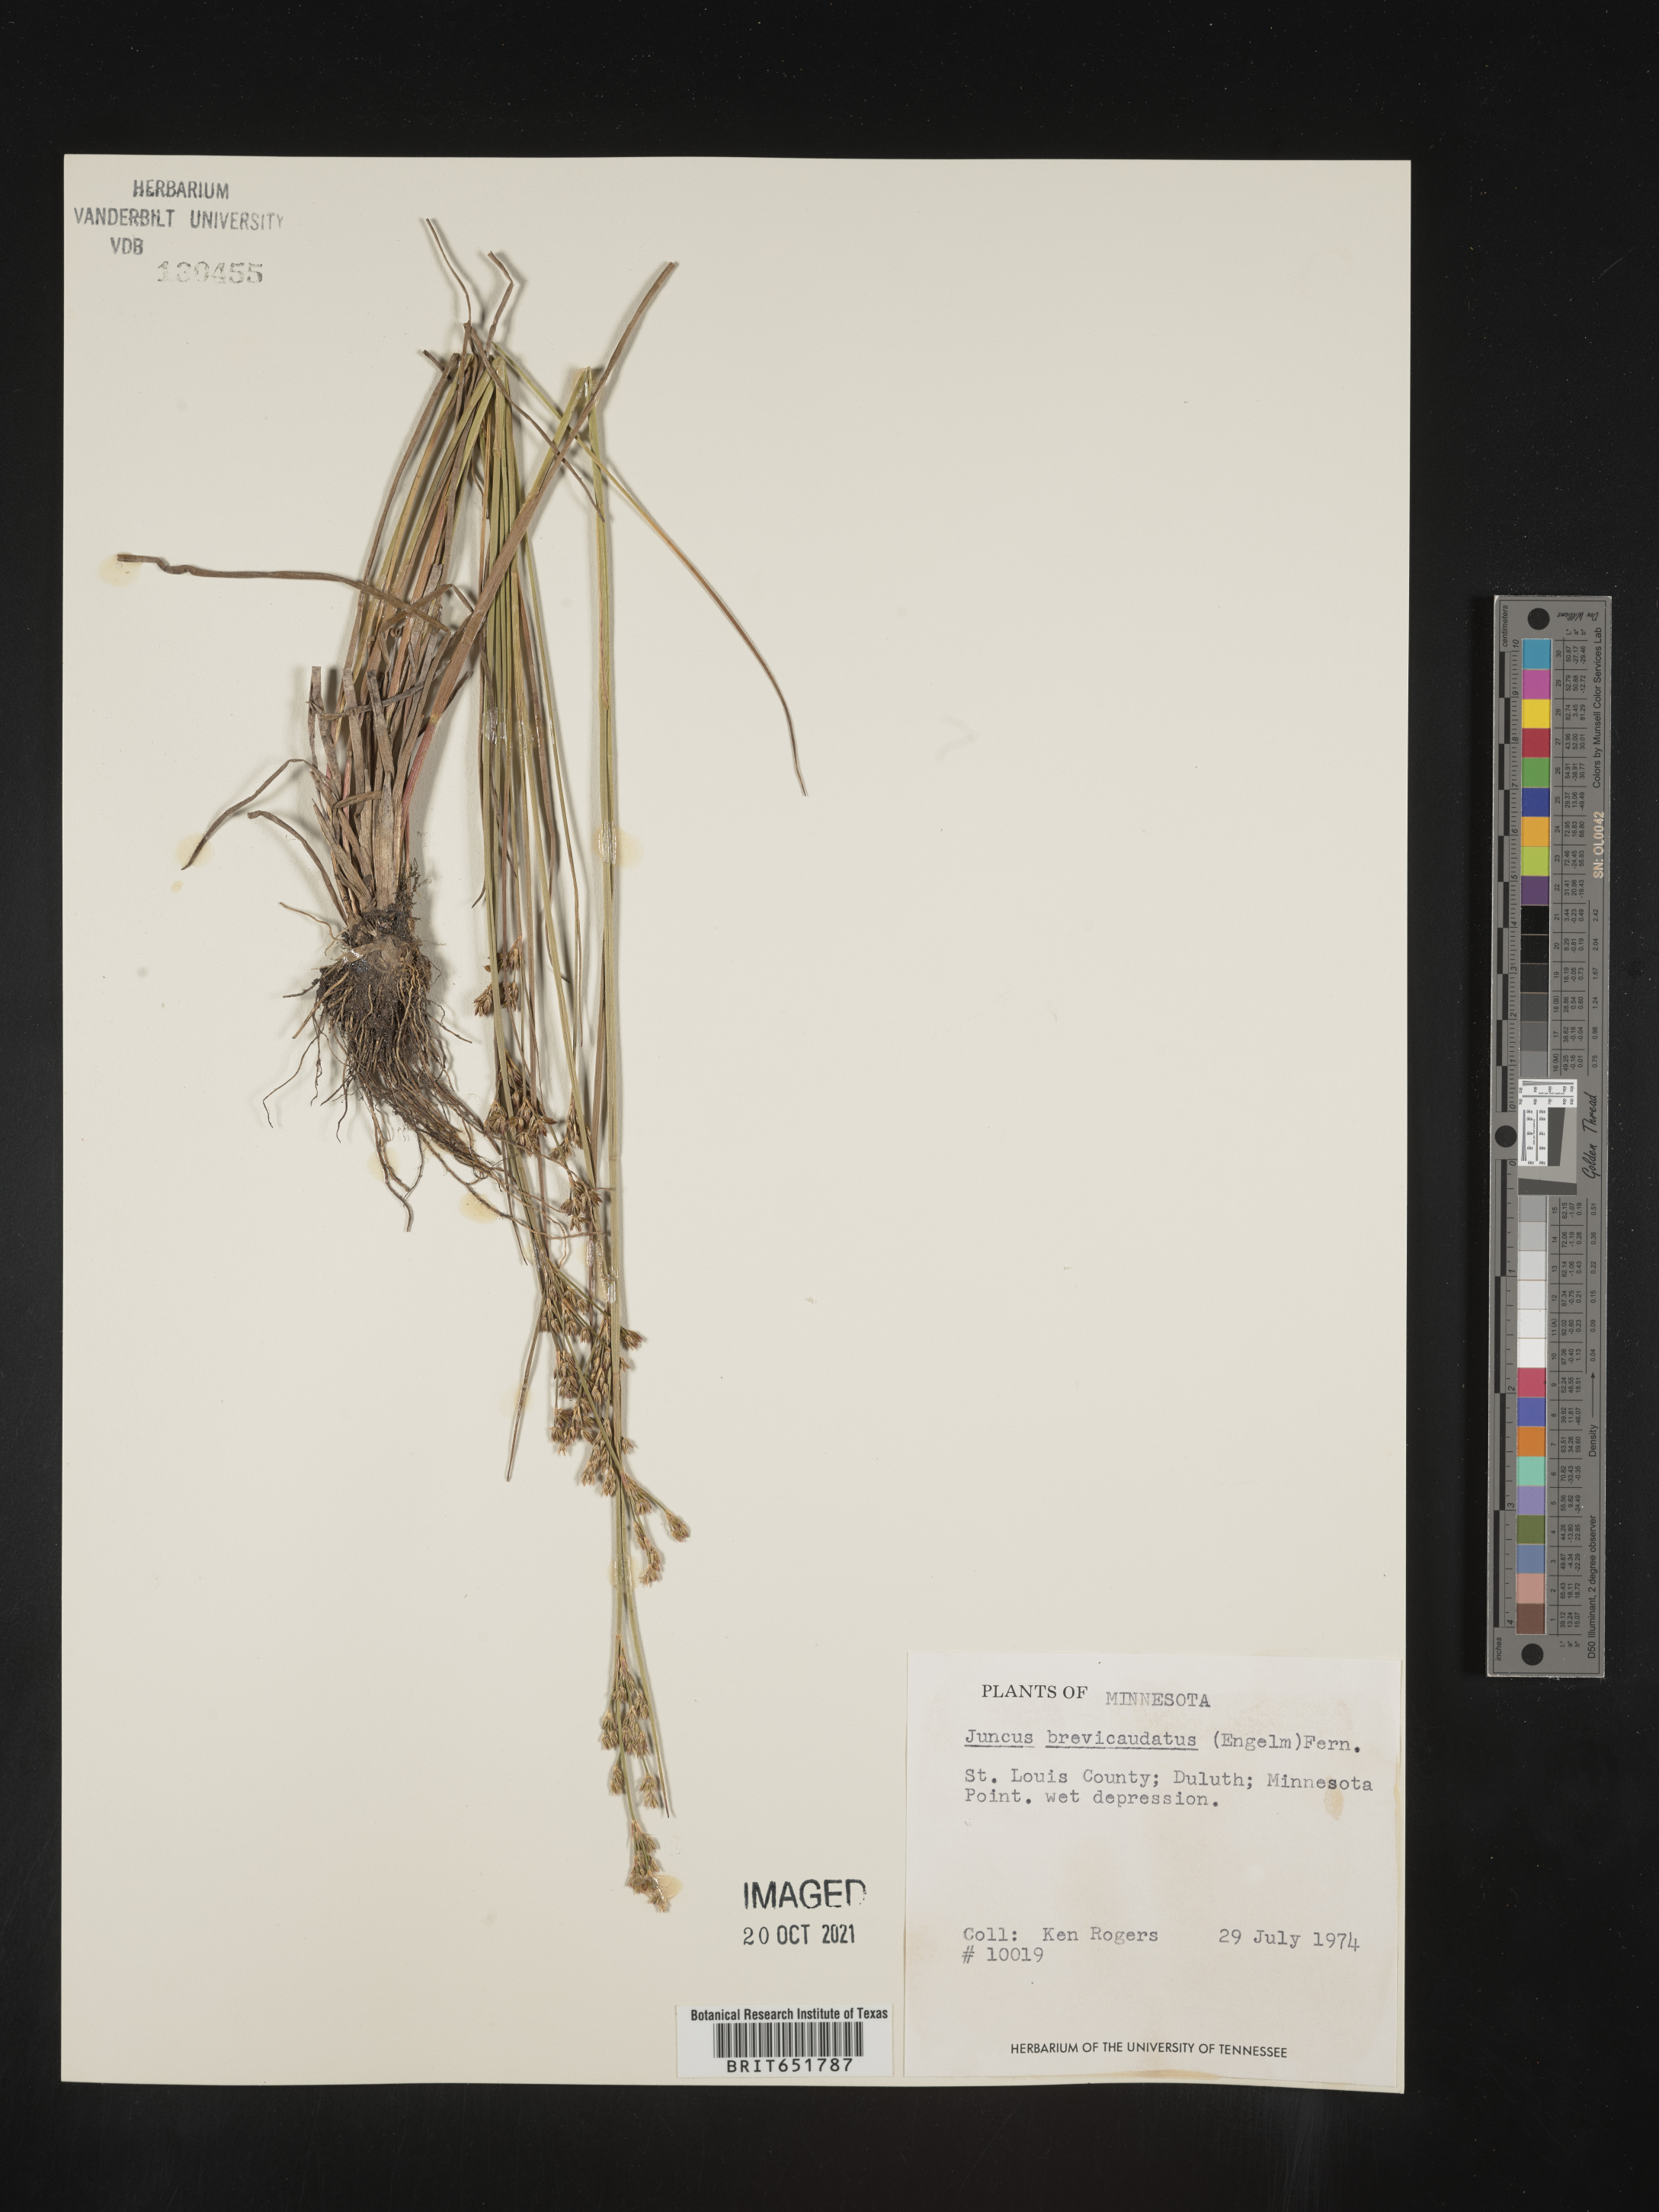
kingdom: Plantae
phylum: Tracheophyta
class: Liliopsida
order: Poales
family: Juncaceae
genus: Juncus
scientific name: Juncus brevicaudatus
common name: Narrow-panicle rush
